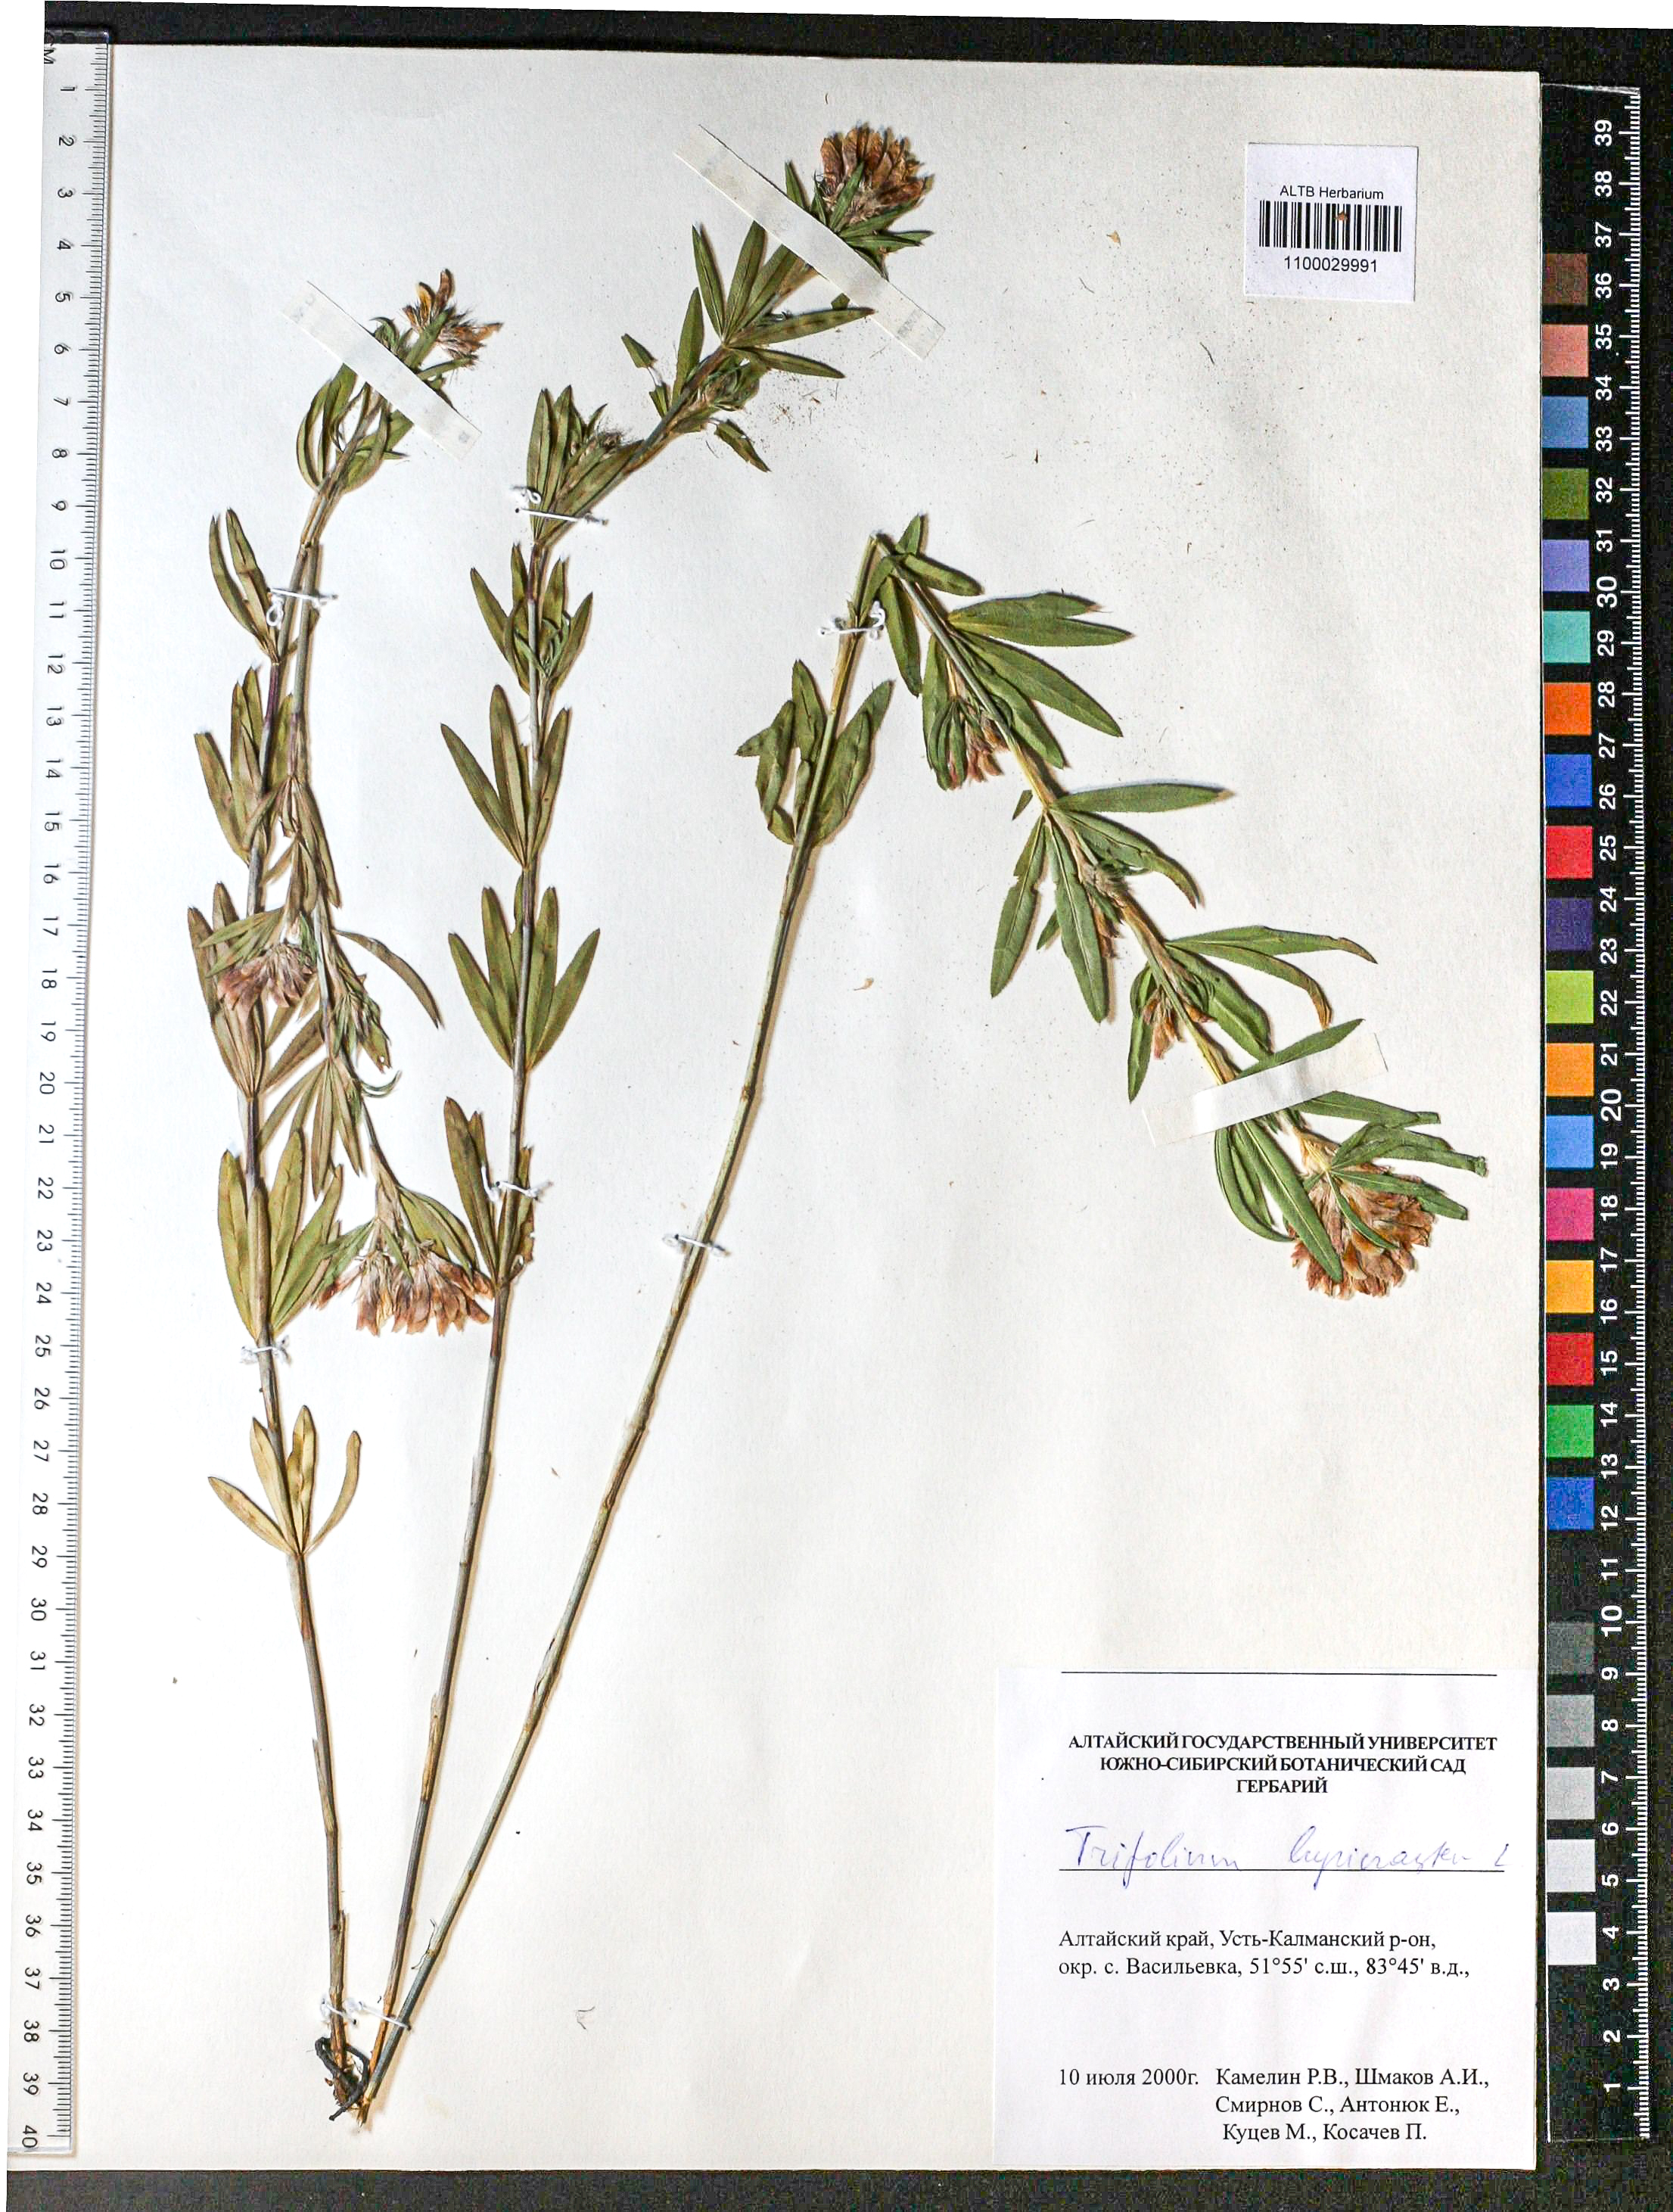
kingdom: Plantae
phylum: Tracheophyta
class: Magnoliopsida
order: Fabales
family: Fabaceae
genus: Trifolium
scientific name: Trifolium lupinaster
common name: Lupine clover
